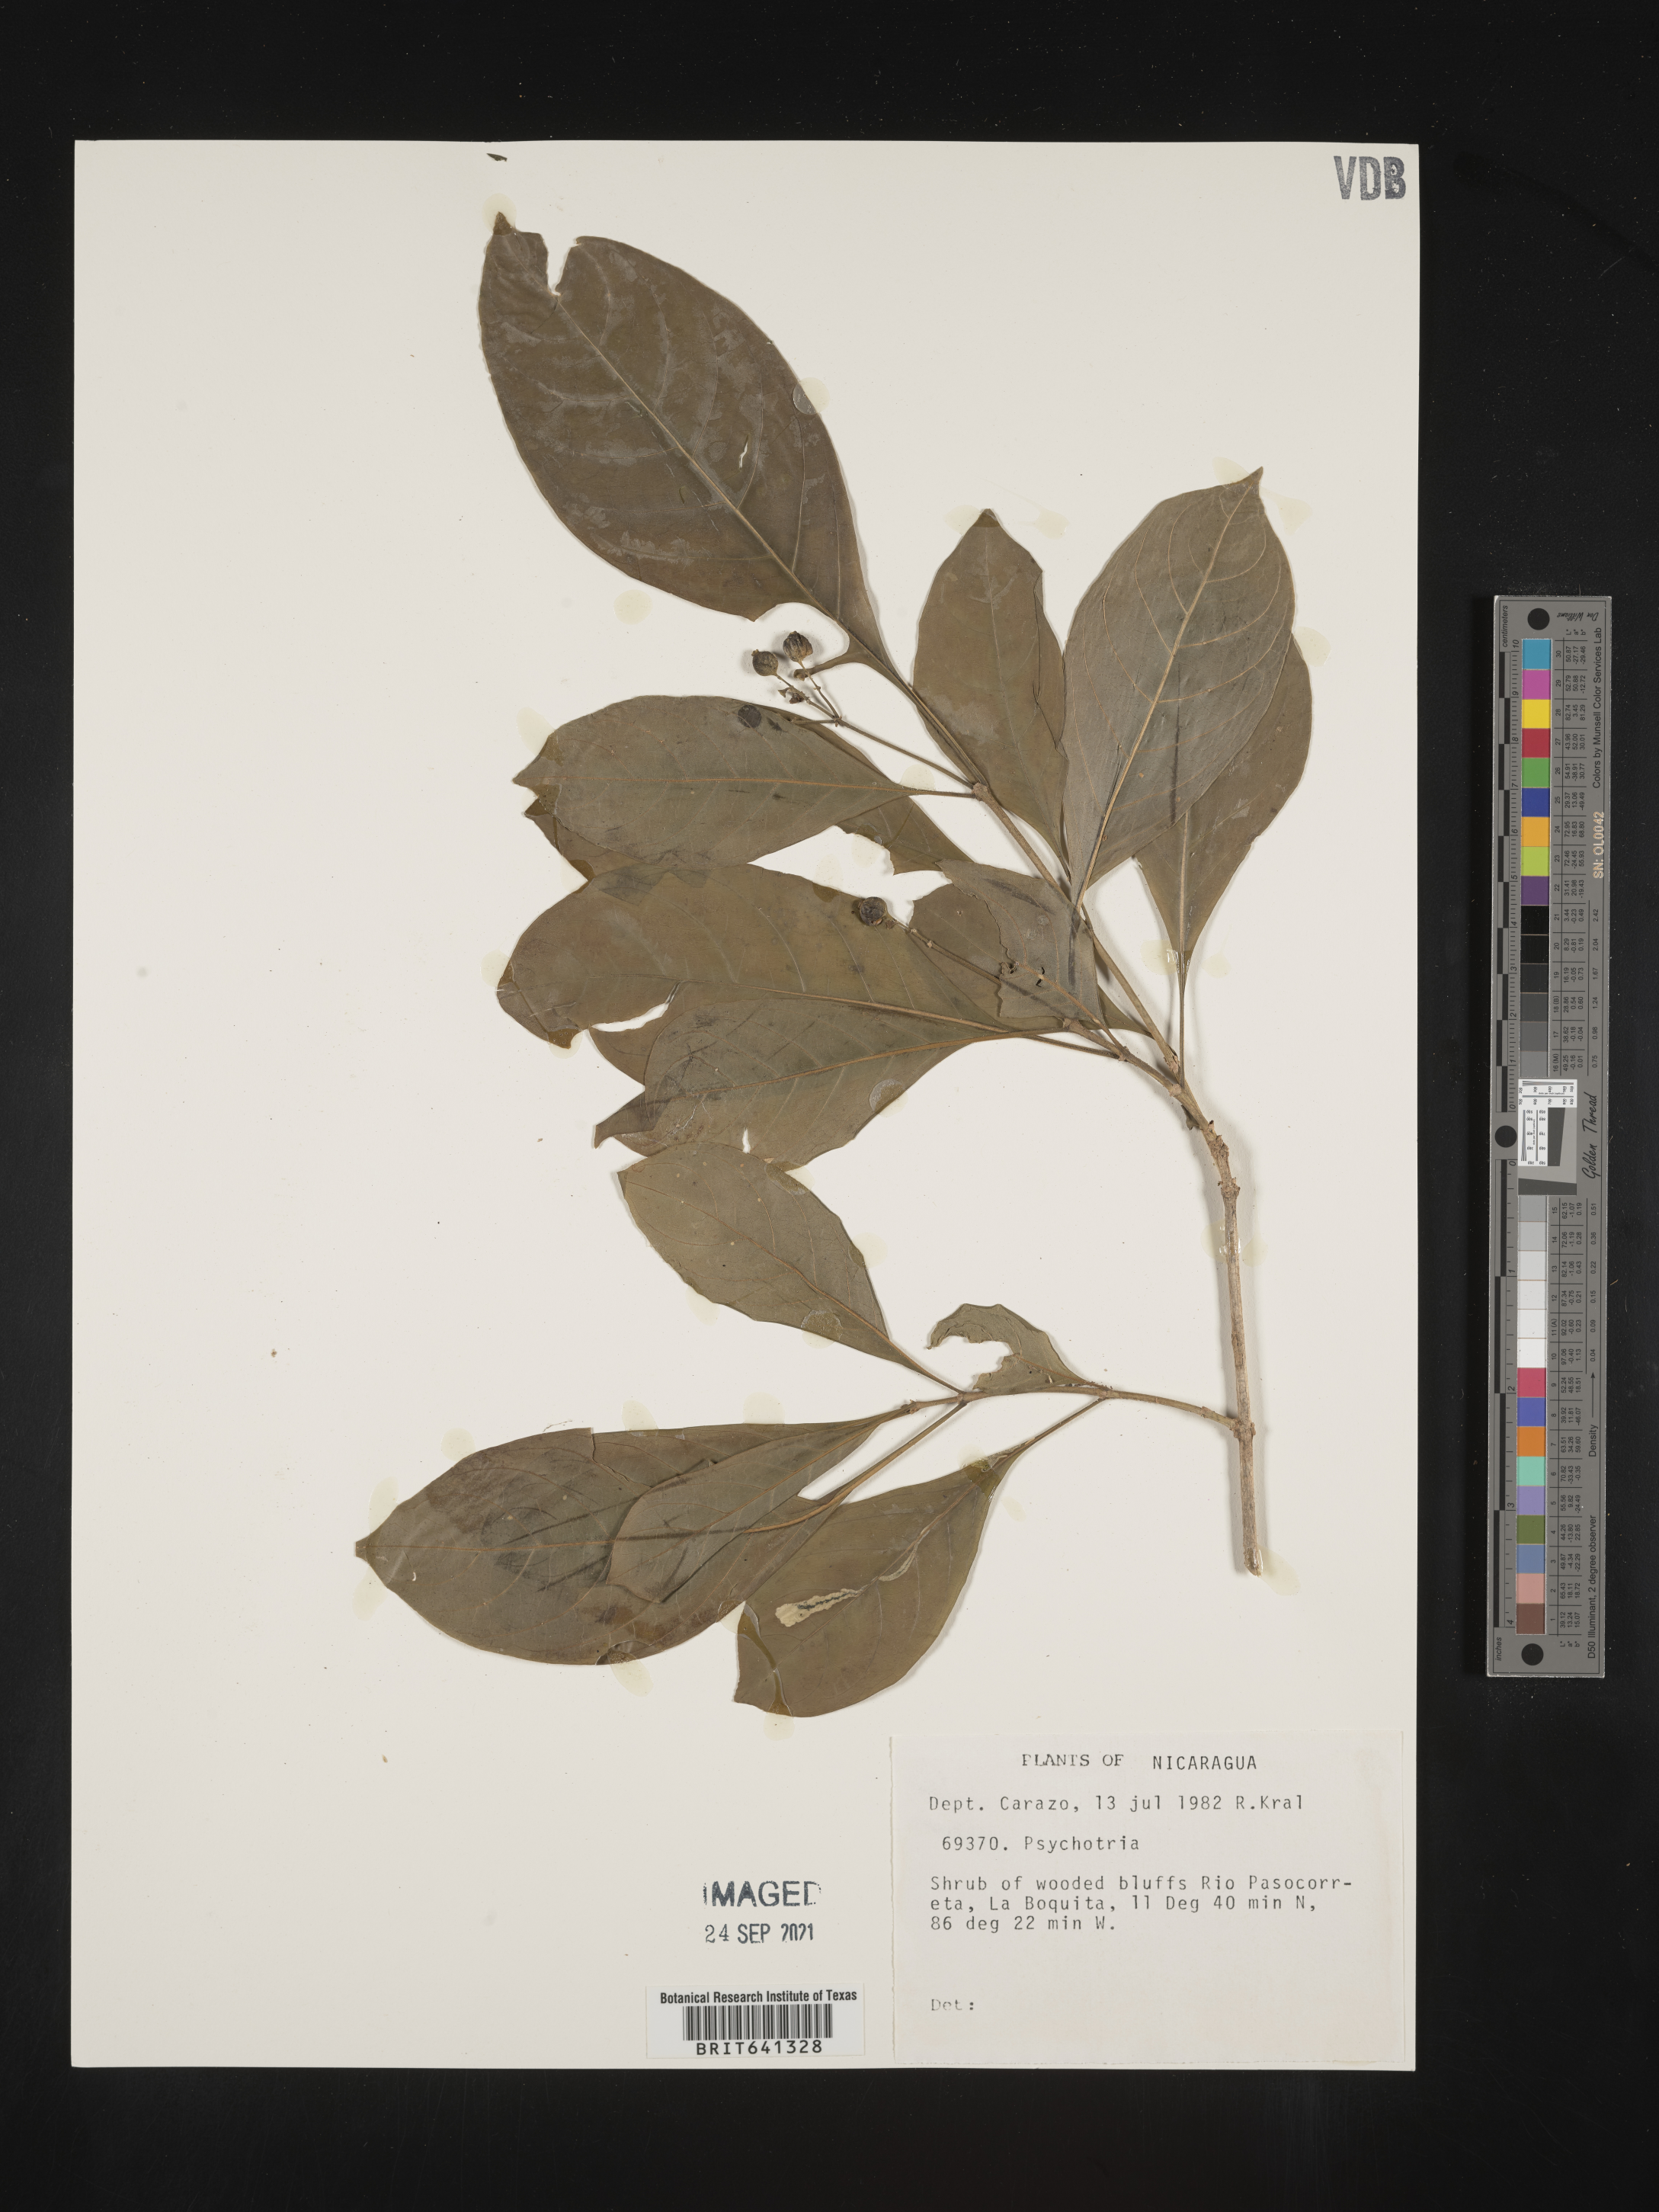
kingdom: Plantae
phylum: Tracheophyta
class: Magnoliopsida
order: Gentianales
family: Rubiaceae
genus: Psychotria
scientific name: Psychotria
